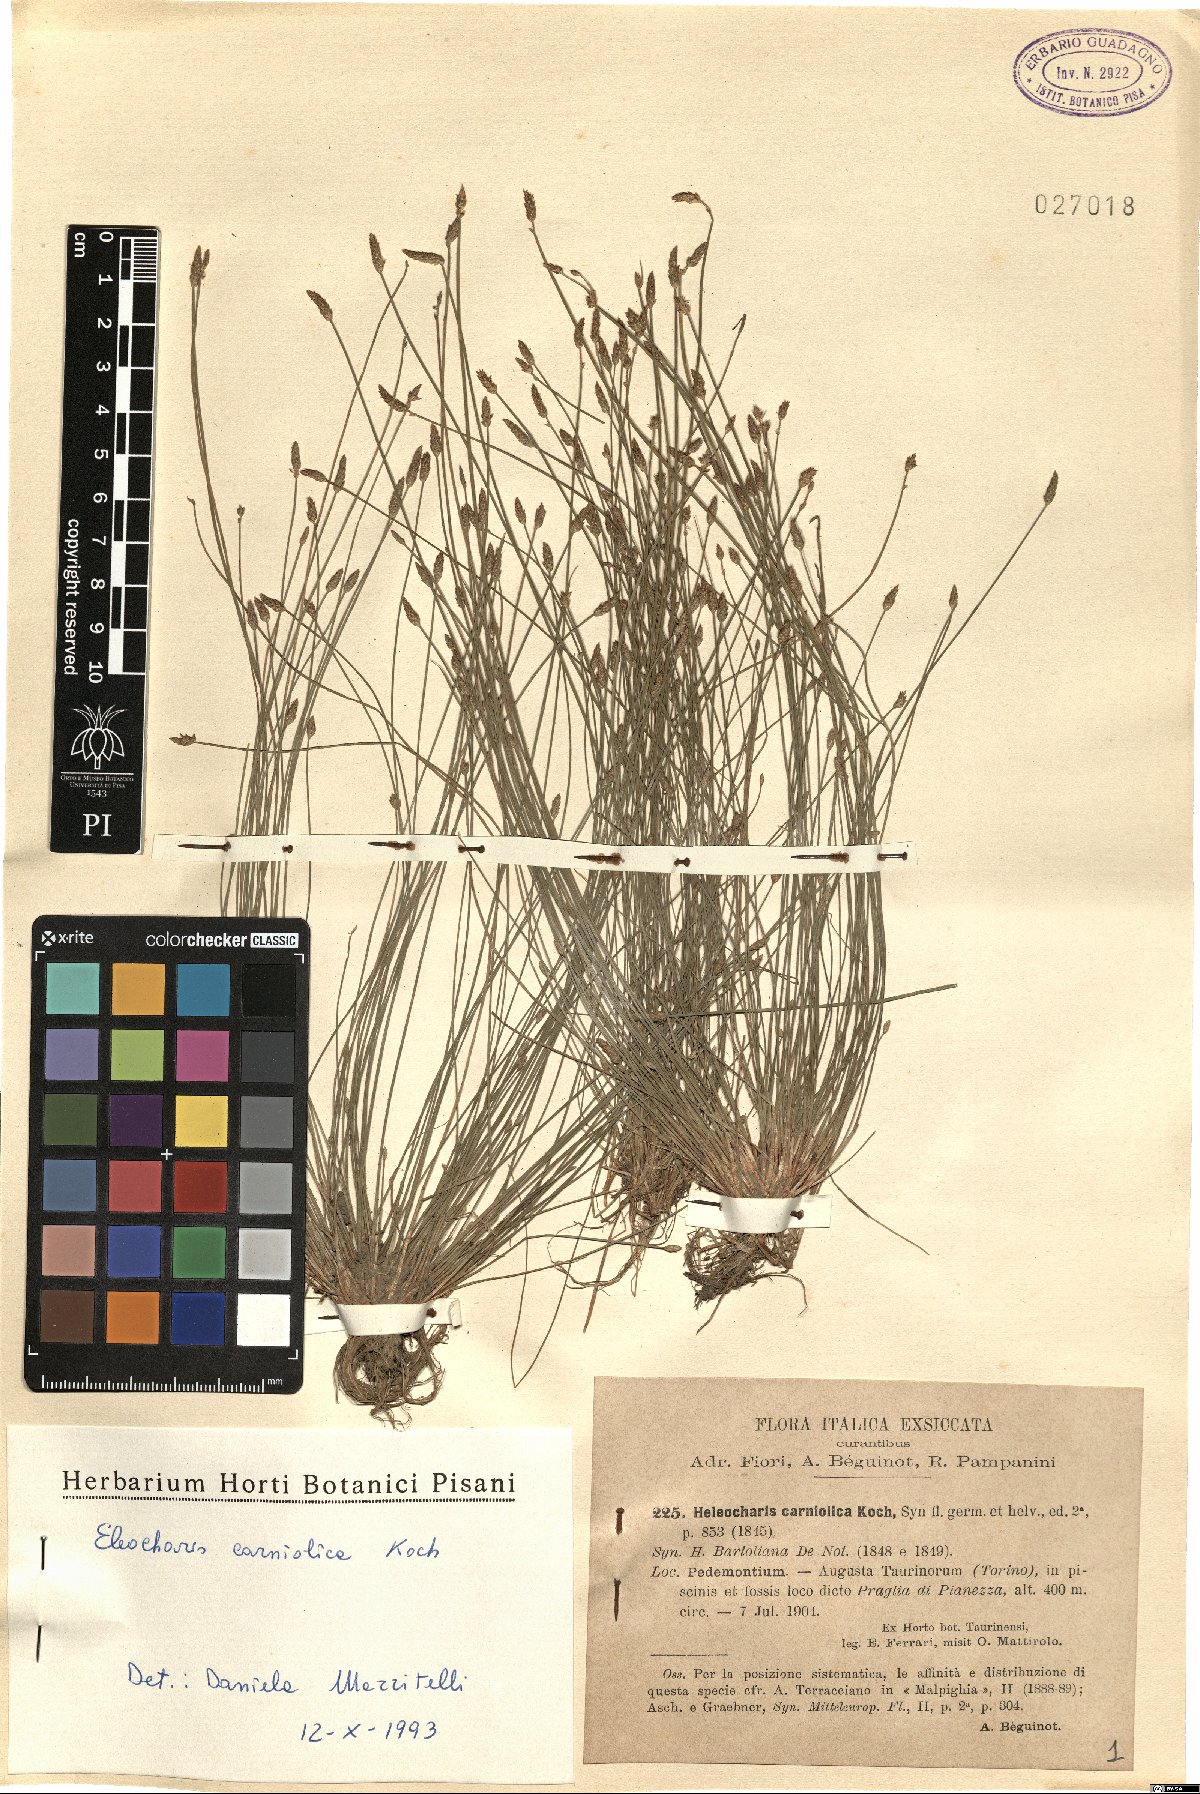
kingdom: Plantae
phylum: Tracheophyta
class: Liliopsida
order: Poales
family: Cyperaceae
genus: Eleocharis
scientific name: Eleocharis carniolica
